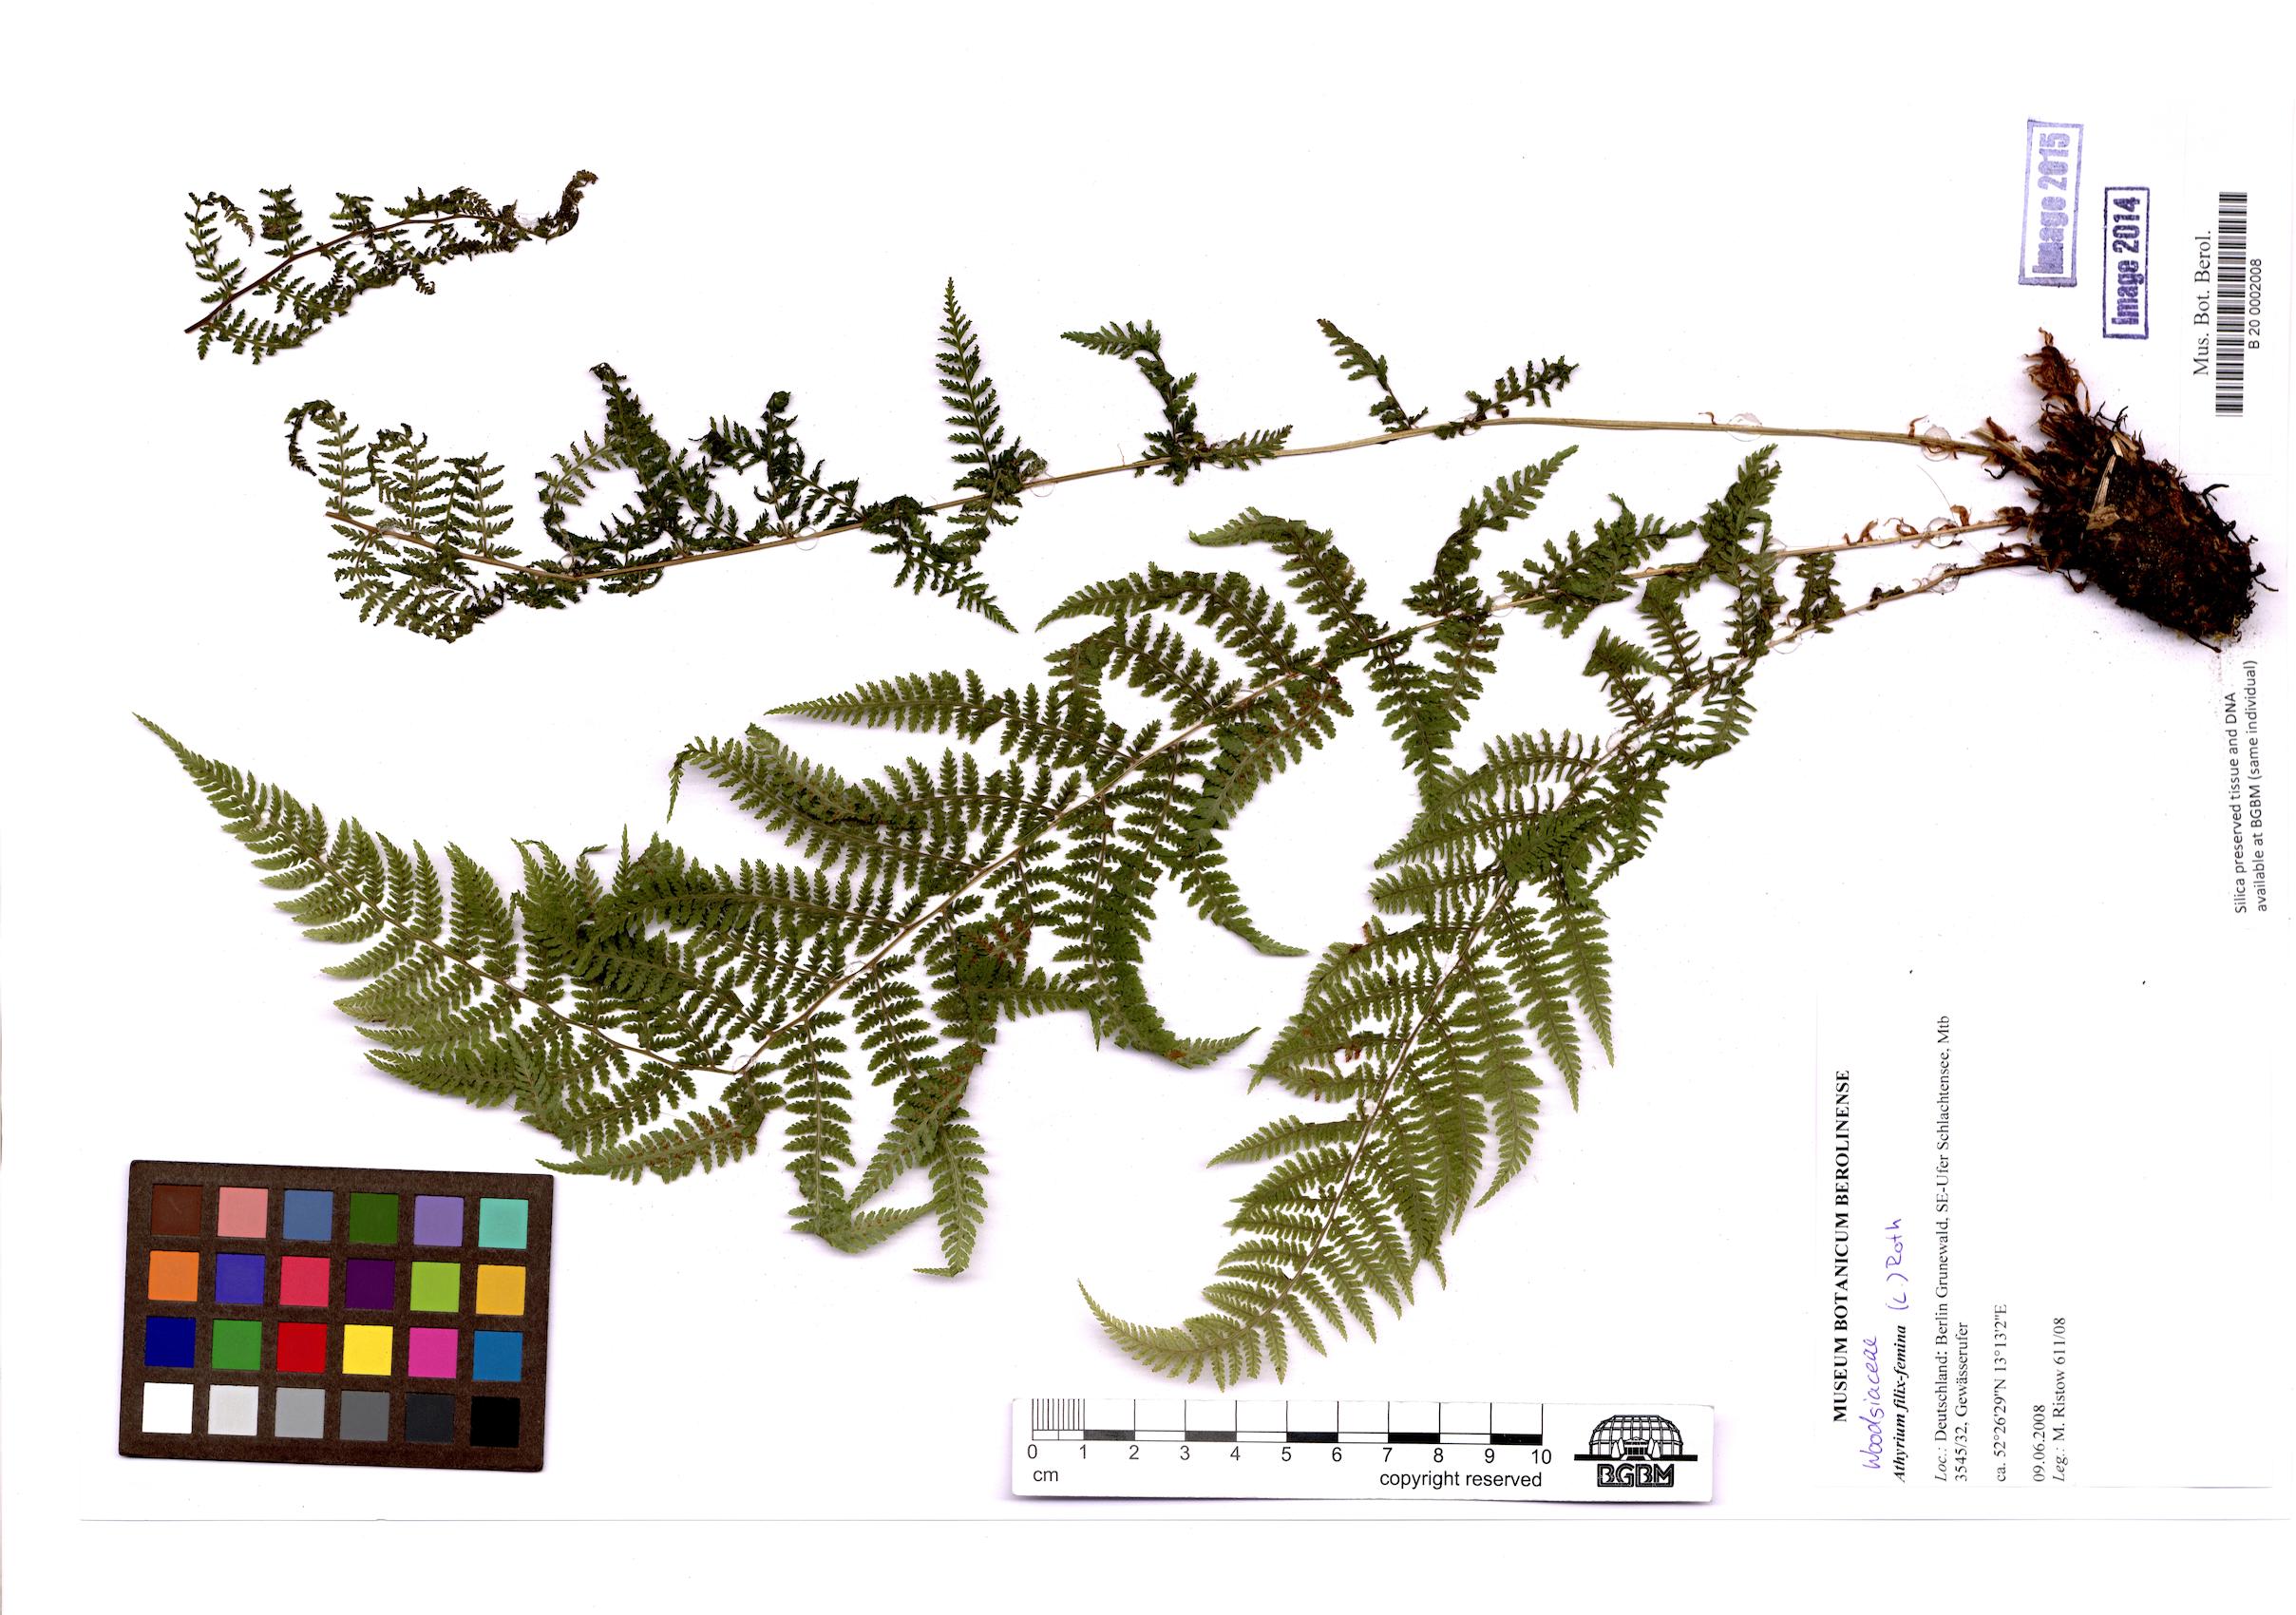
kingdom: Plantae
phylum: Tracheophyta
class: Polypodiopsida
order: Polypodiales
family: Athyriaceae
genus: Athyrium
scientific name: Athyrium filix-femina
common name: Lady fern
